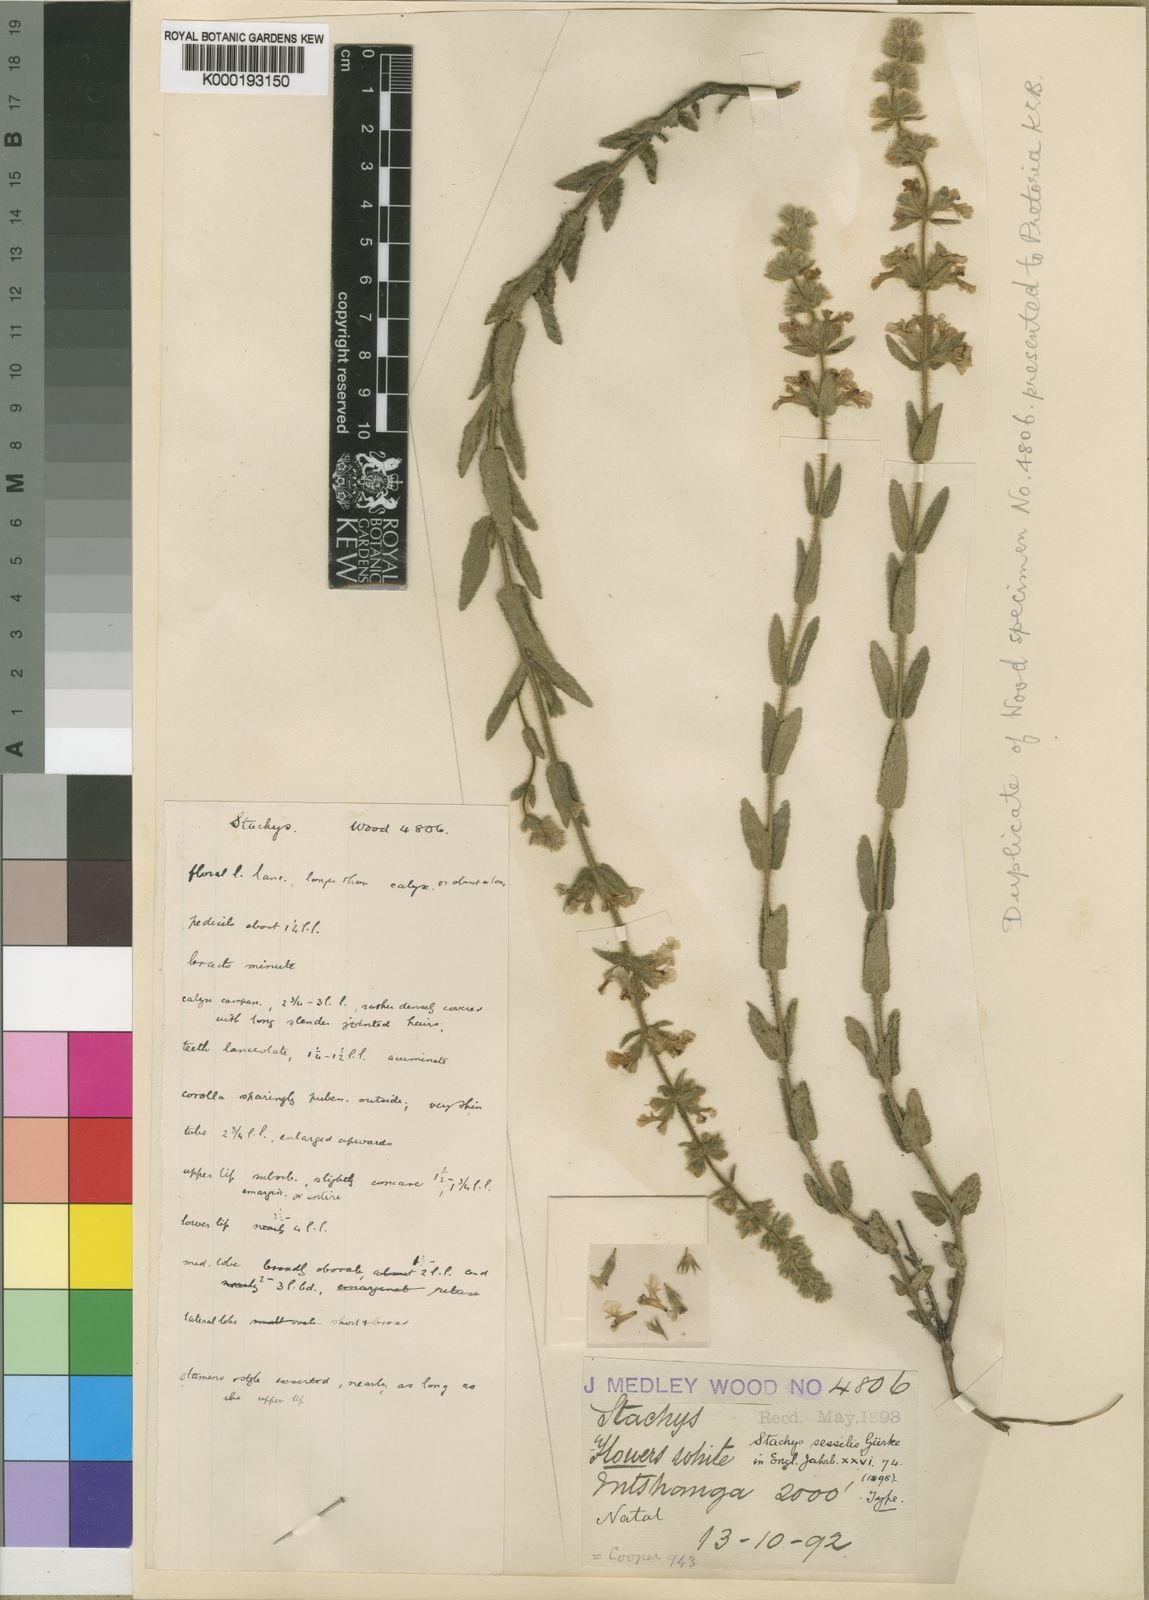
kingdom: Plantae
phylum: Tracheophyta
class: Magnoliopsida
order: Lamiales
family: Lamiaceae
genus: Stachys
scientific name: Stachys
